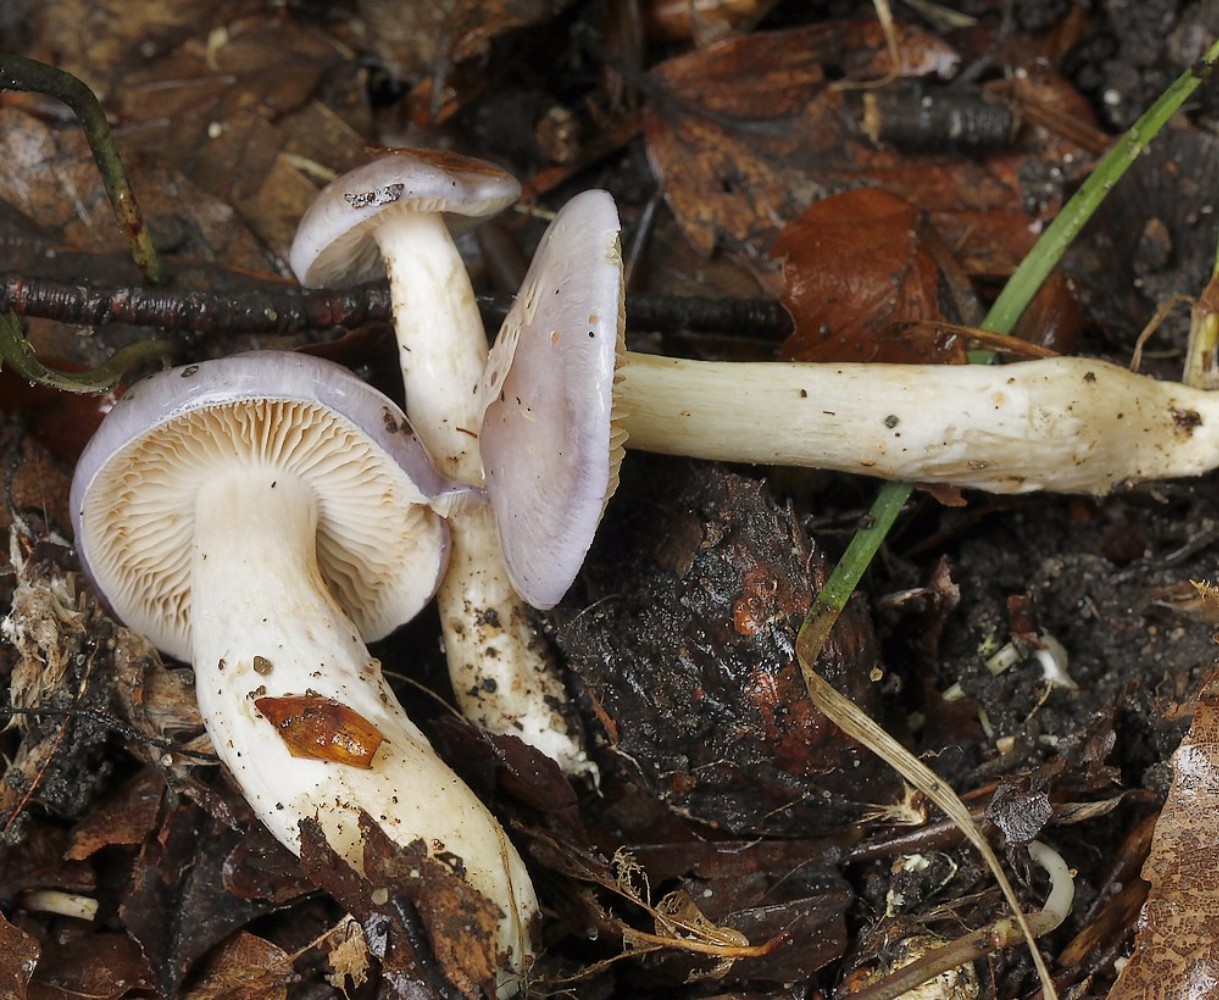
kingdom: Fungi
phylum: Basidiomycota
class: Agaricomycetes
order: Agaricales
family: Cortinariaceae
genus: Thaxterogaster
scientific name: Thaxterogaster croceocoeruleus
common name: blågullig slørhat
